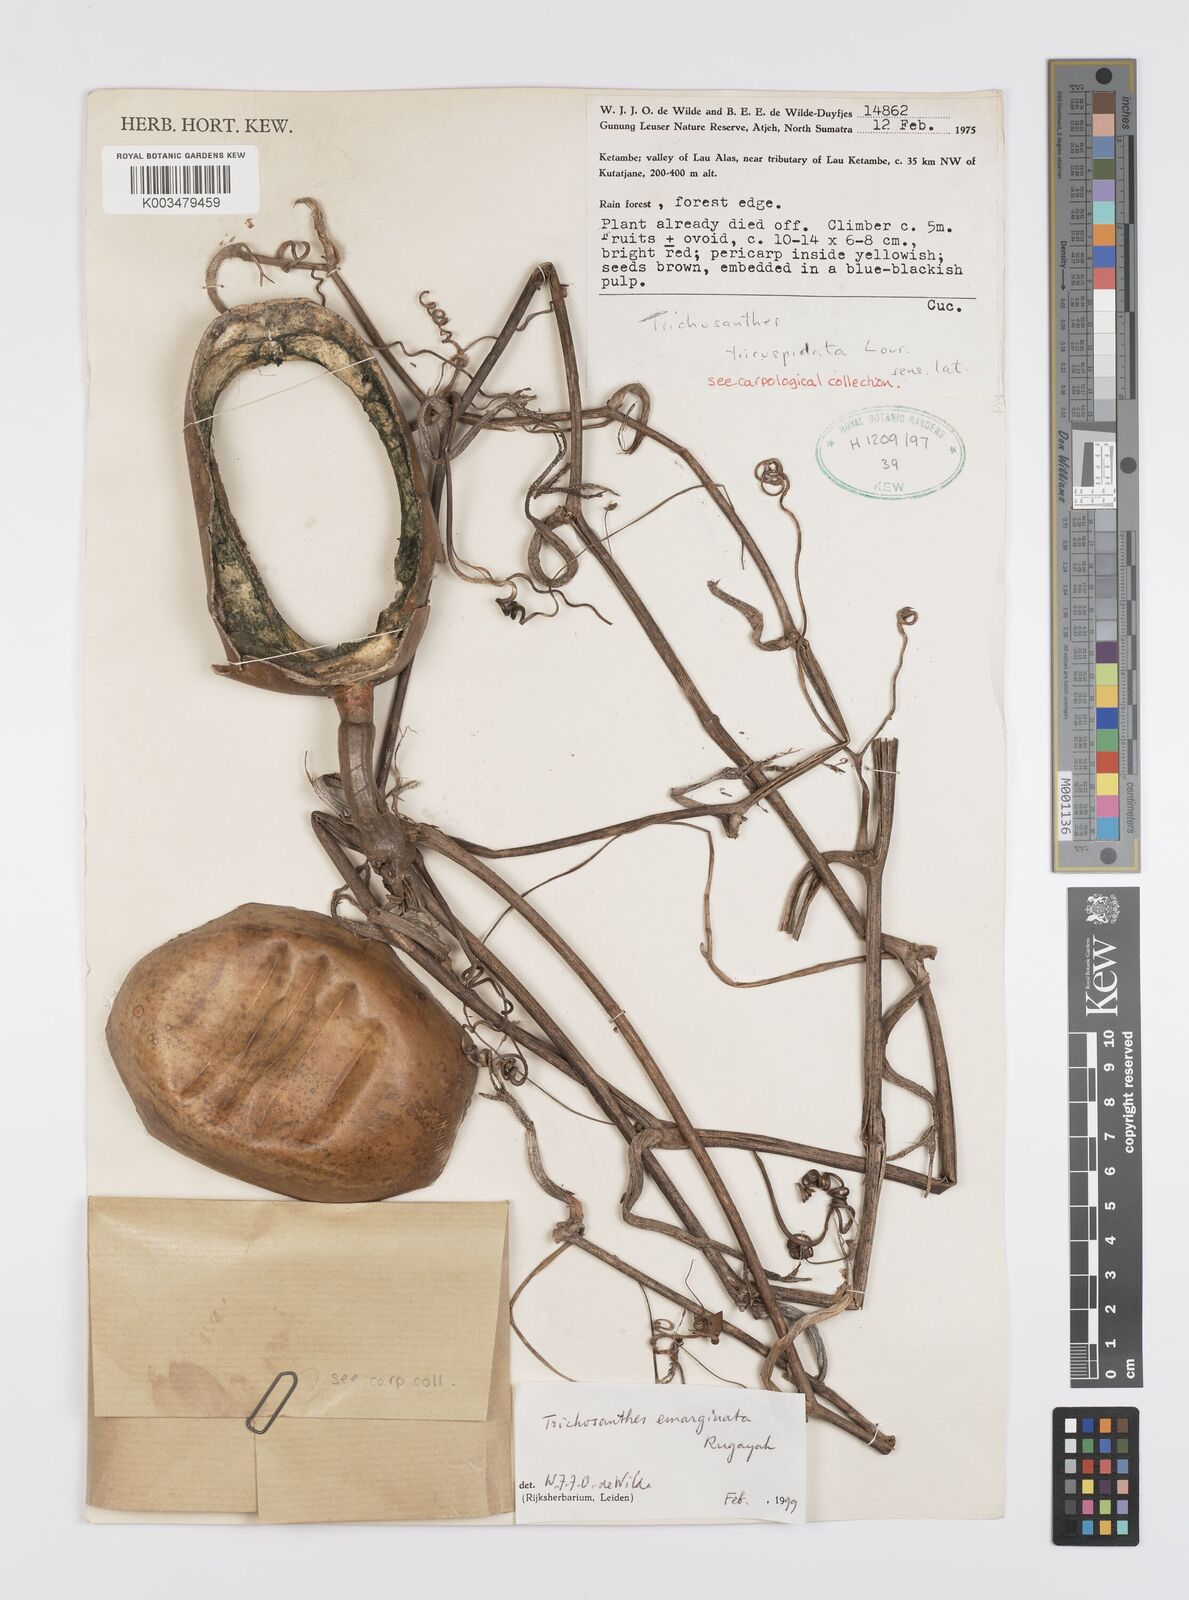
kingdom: Plantae
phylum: Tracheophyta
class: Magnoliopsida
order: Cucurbitales
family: Cucurbitaceae
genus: Trichosanthes
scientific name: Trichosanthes emarginata
